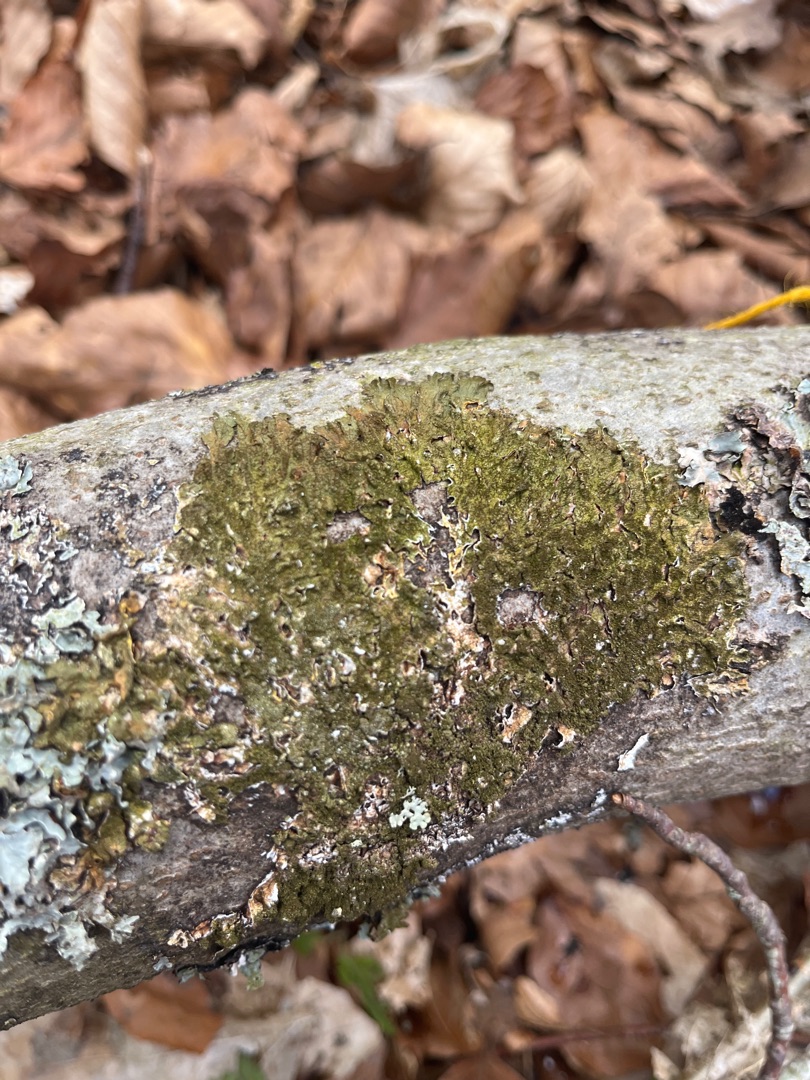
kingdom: Fungi
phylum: Ascomycota
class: Lecanoromycetes
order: Lecanorales
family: Parmeliaceae
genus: Melanelixia
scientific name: Melanelixia glabratula
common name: Glinsende skållav
